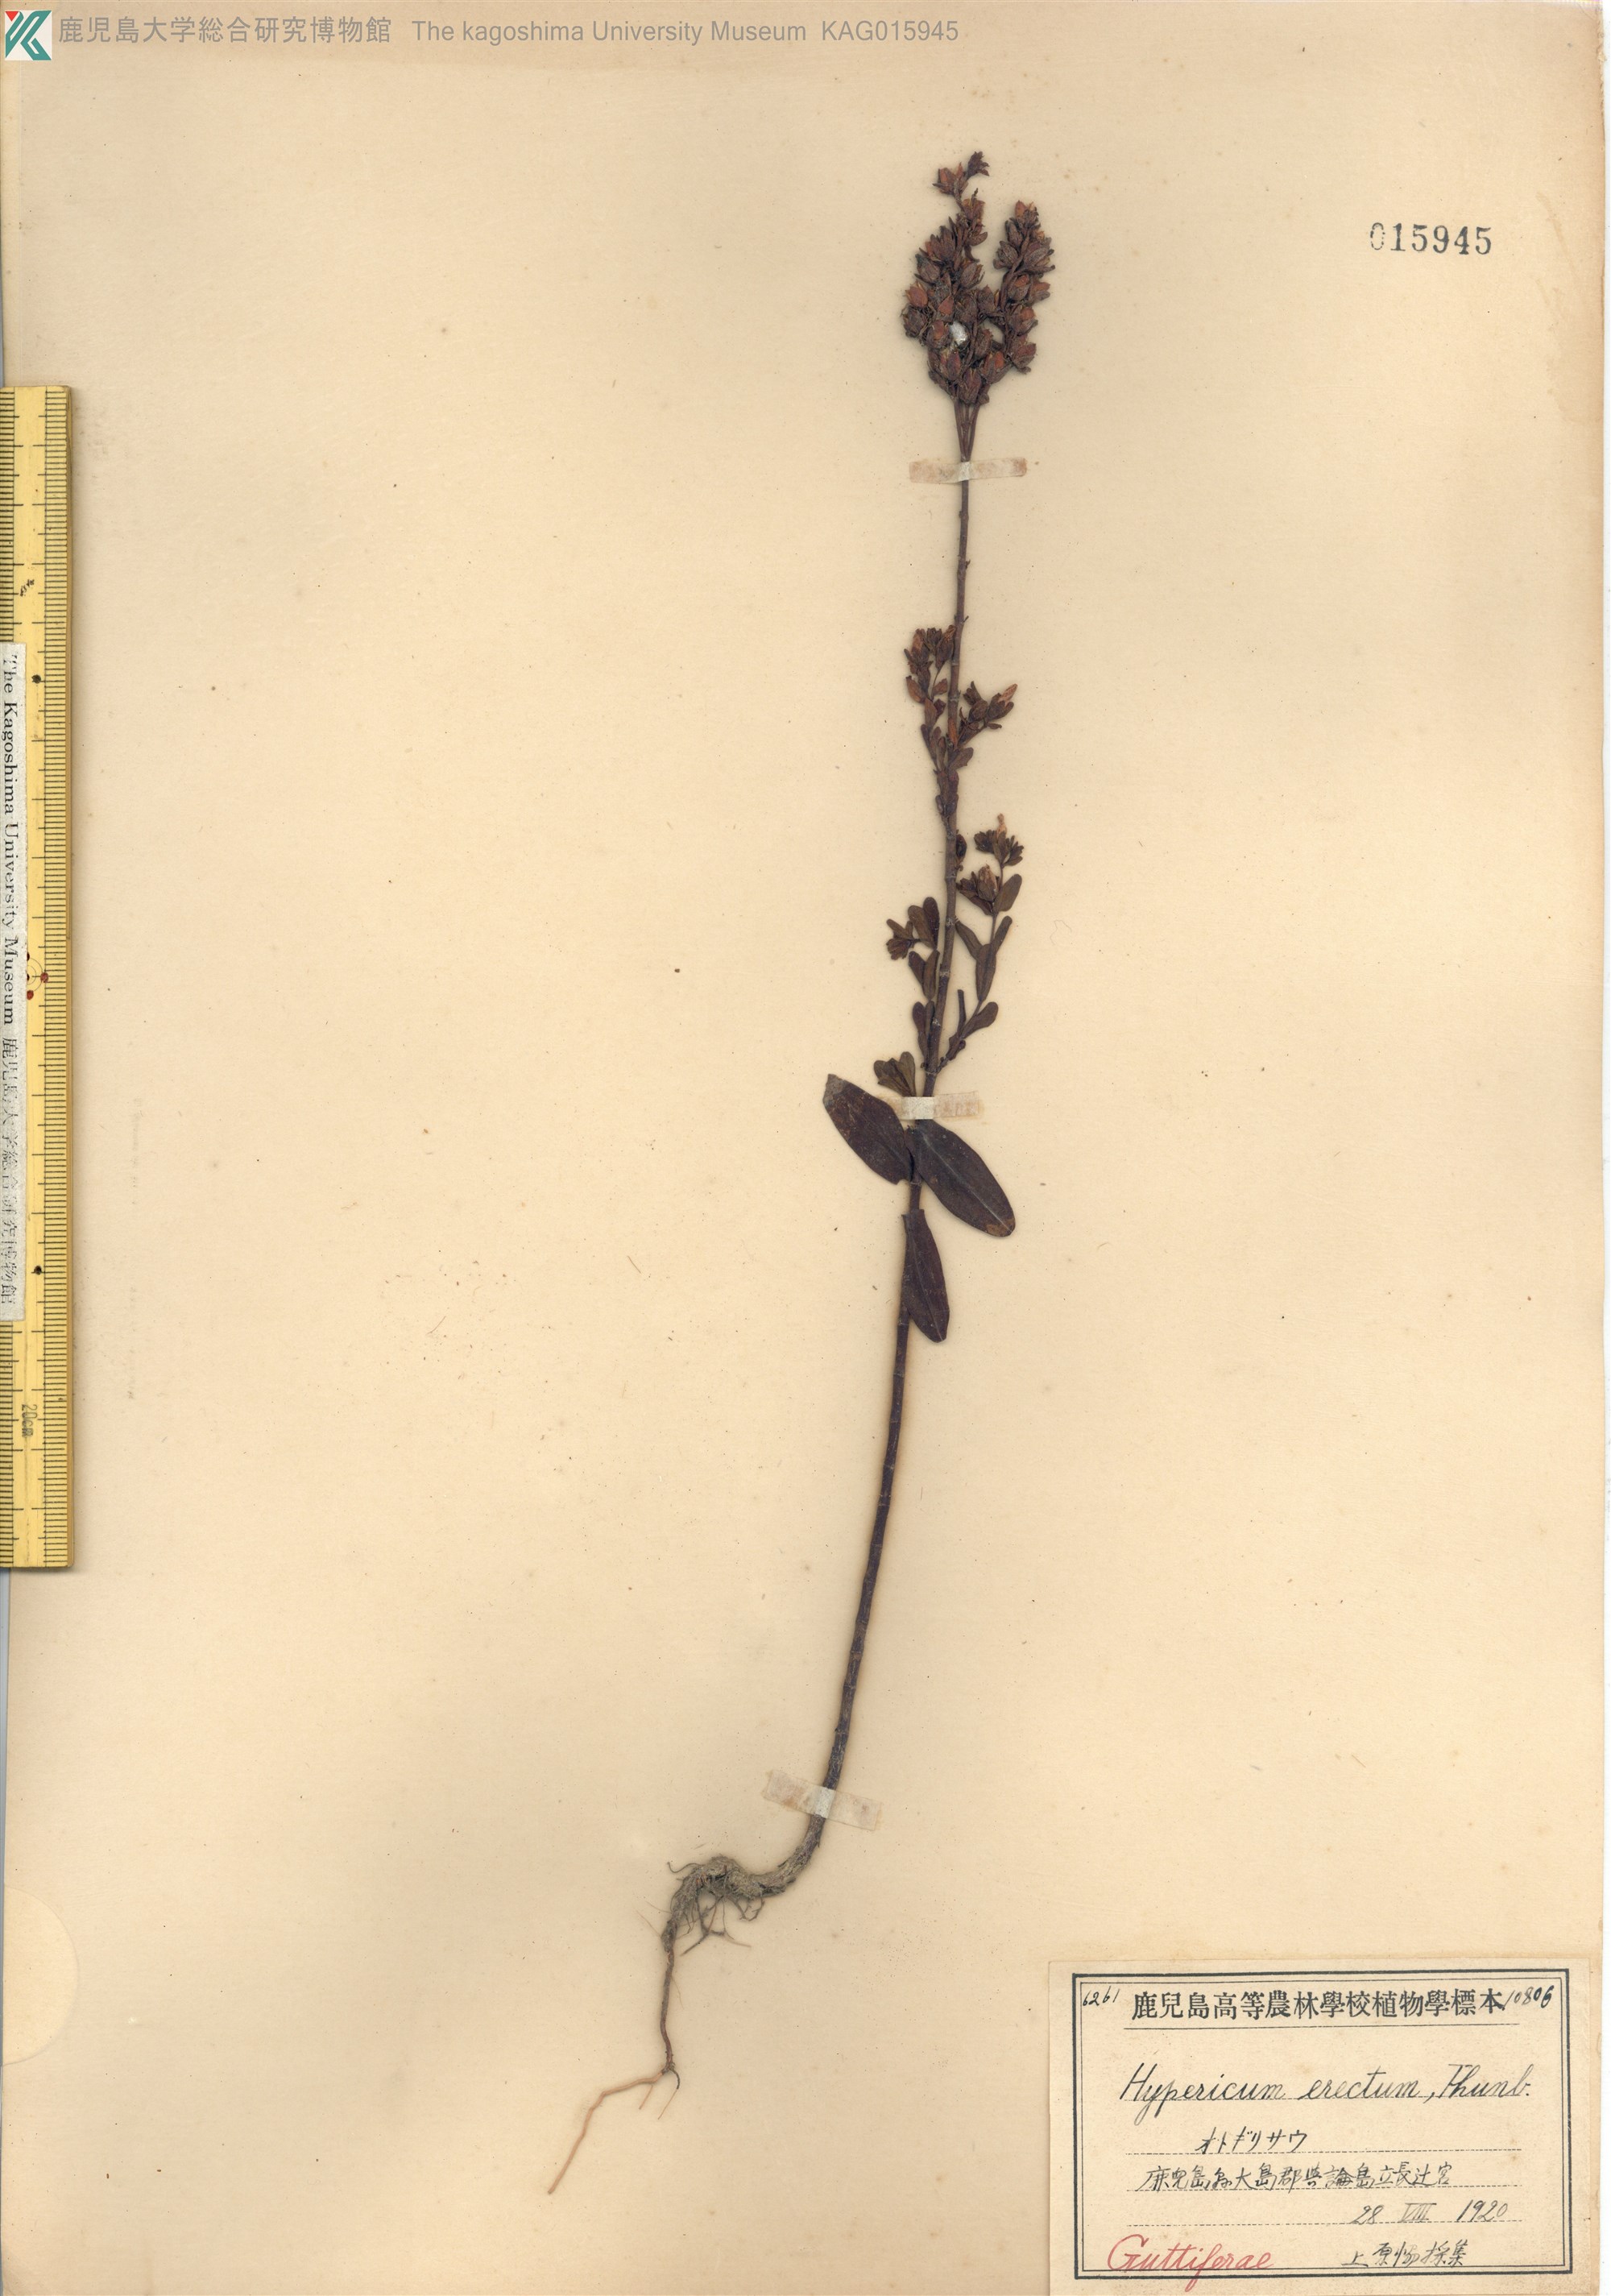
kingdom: Plantae
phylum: Tracheophyta
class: Magnoliopsida
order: Malpighiales
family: Hypericaceae
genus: Hypericum
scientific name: Hypericum erectum
